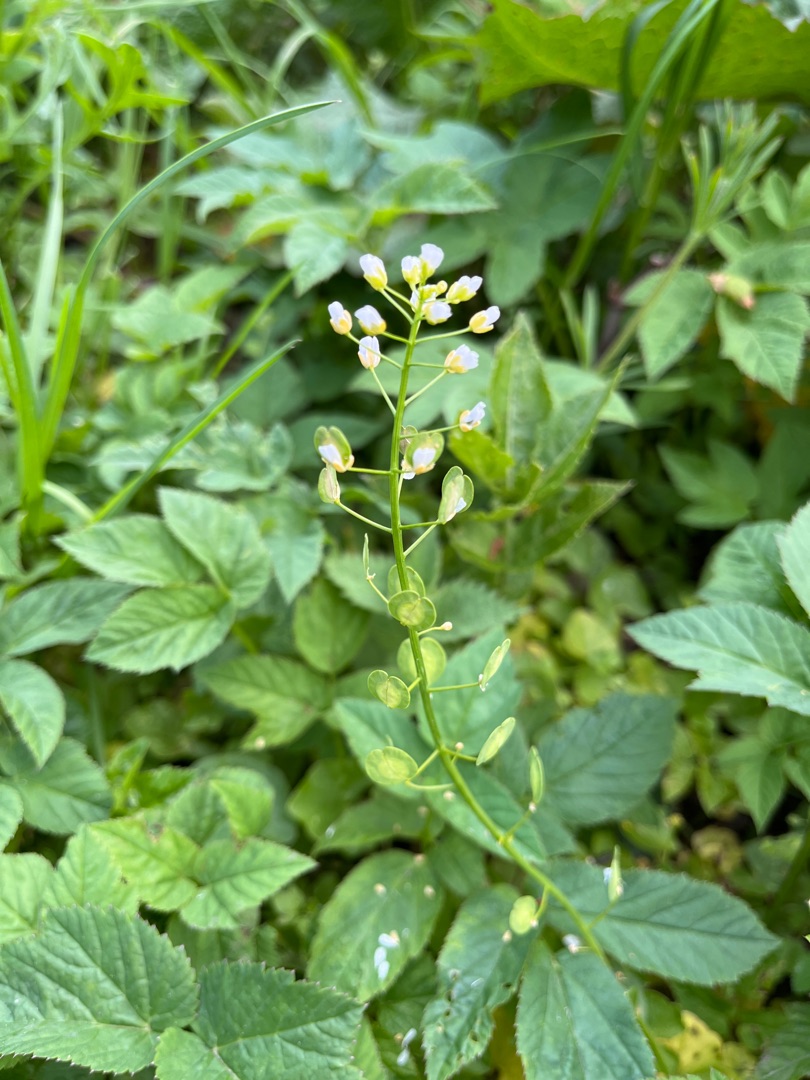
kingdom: Plantae
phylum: Tracheophyta
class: Magnoliopsida
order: Brassicales
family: Brassicaceae
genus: Thlaspi
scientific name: Thlaspi arvense
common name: Almindelig pengeurt
